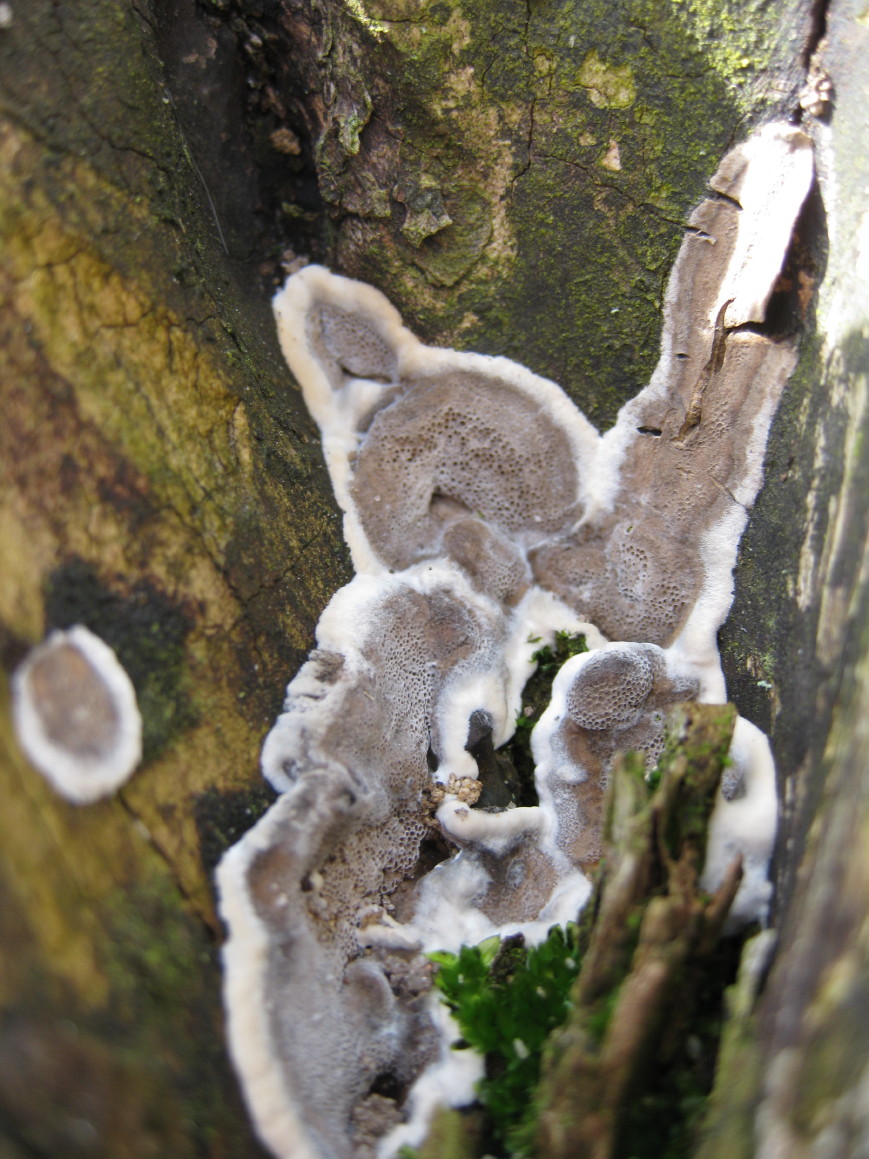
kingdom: Fungi
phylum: Basidiomycota
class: Agaricomycetes
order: Polyporales
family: Phanerochaetaceae
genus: Bjerkandera
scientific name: Bjerkandera adusta
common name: sveden sodporesvamp
